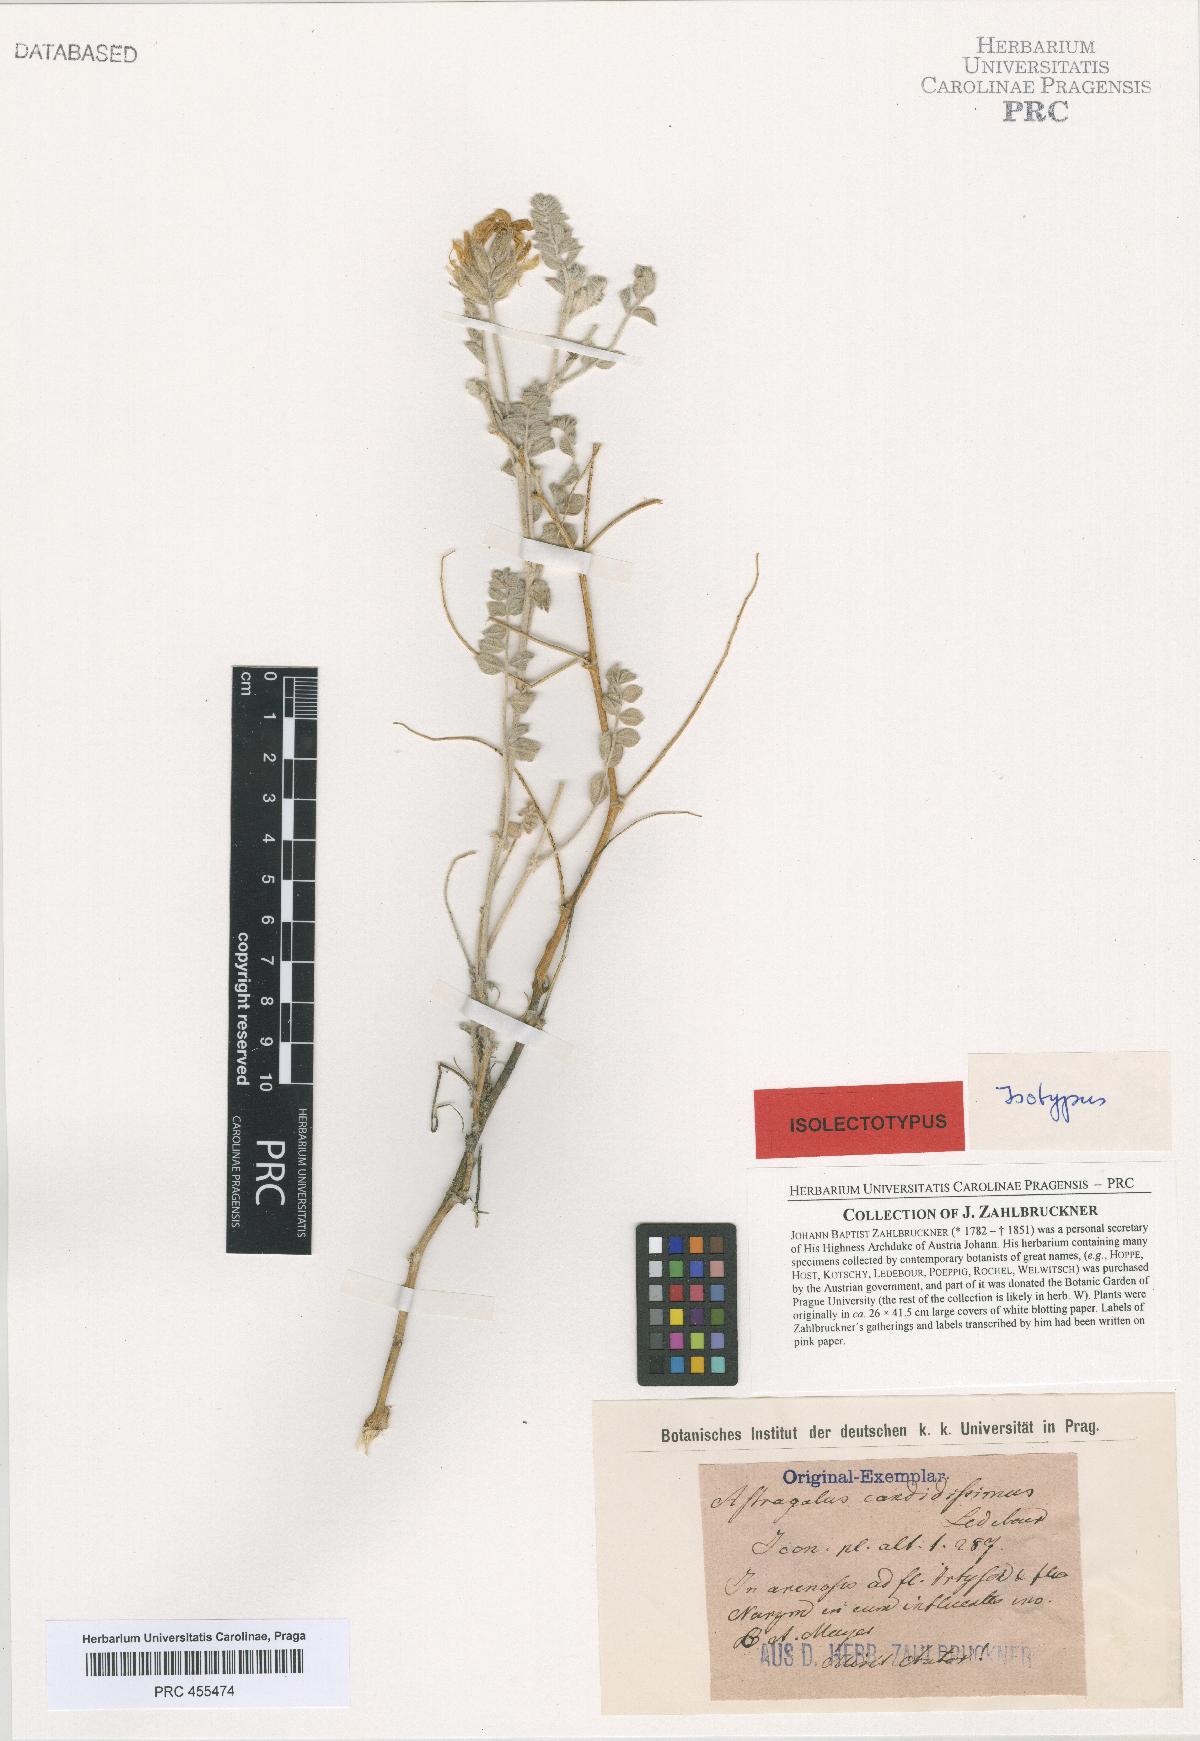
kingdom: Plantae
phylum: Tracheophyta
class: Magnoliopsida
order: Fabales
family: Fabaceae
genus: Astragalus
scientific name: Astragalus candidissimus
